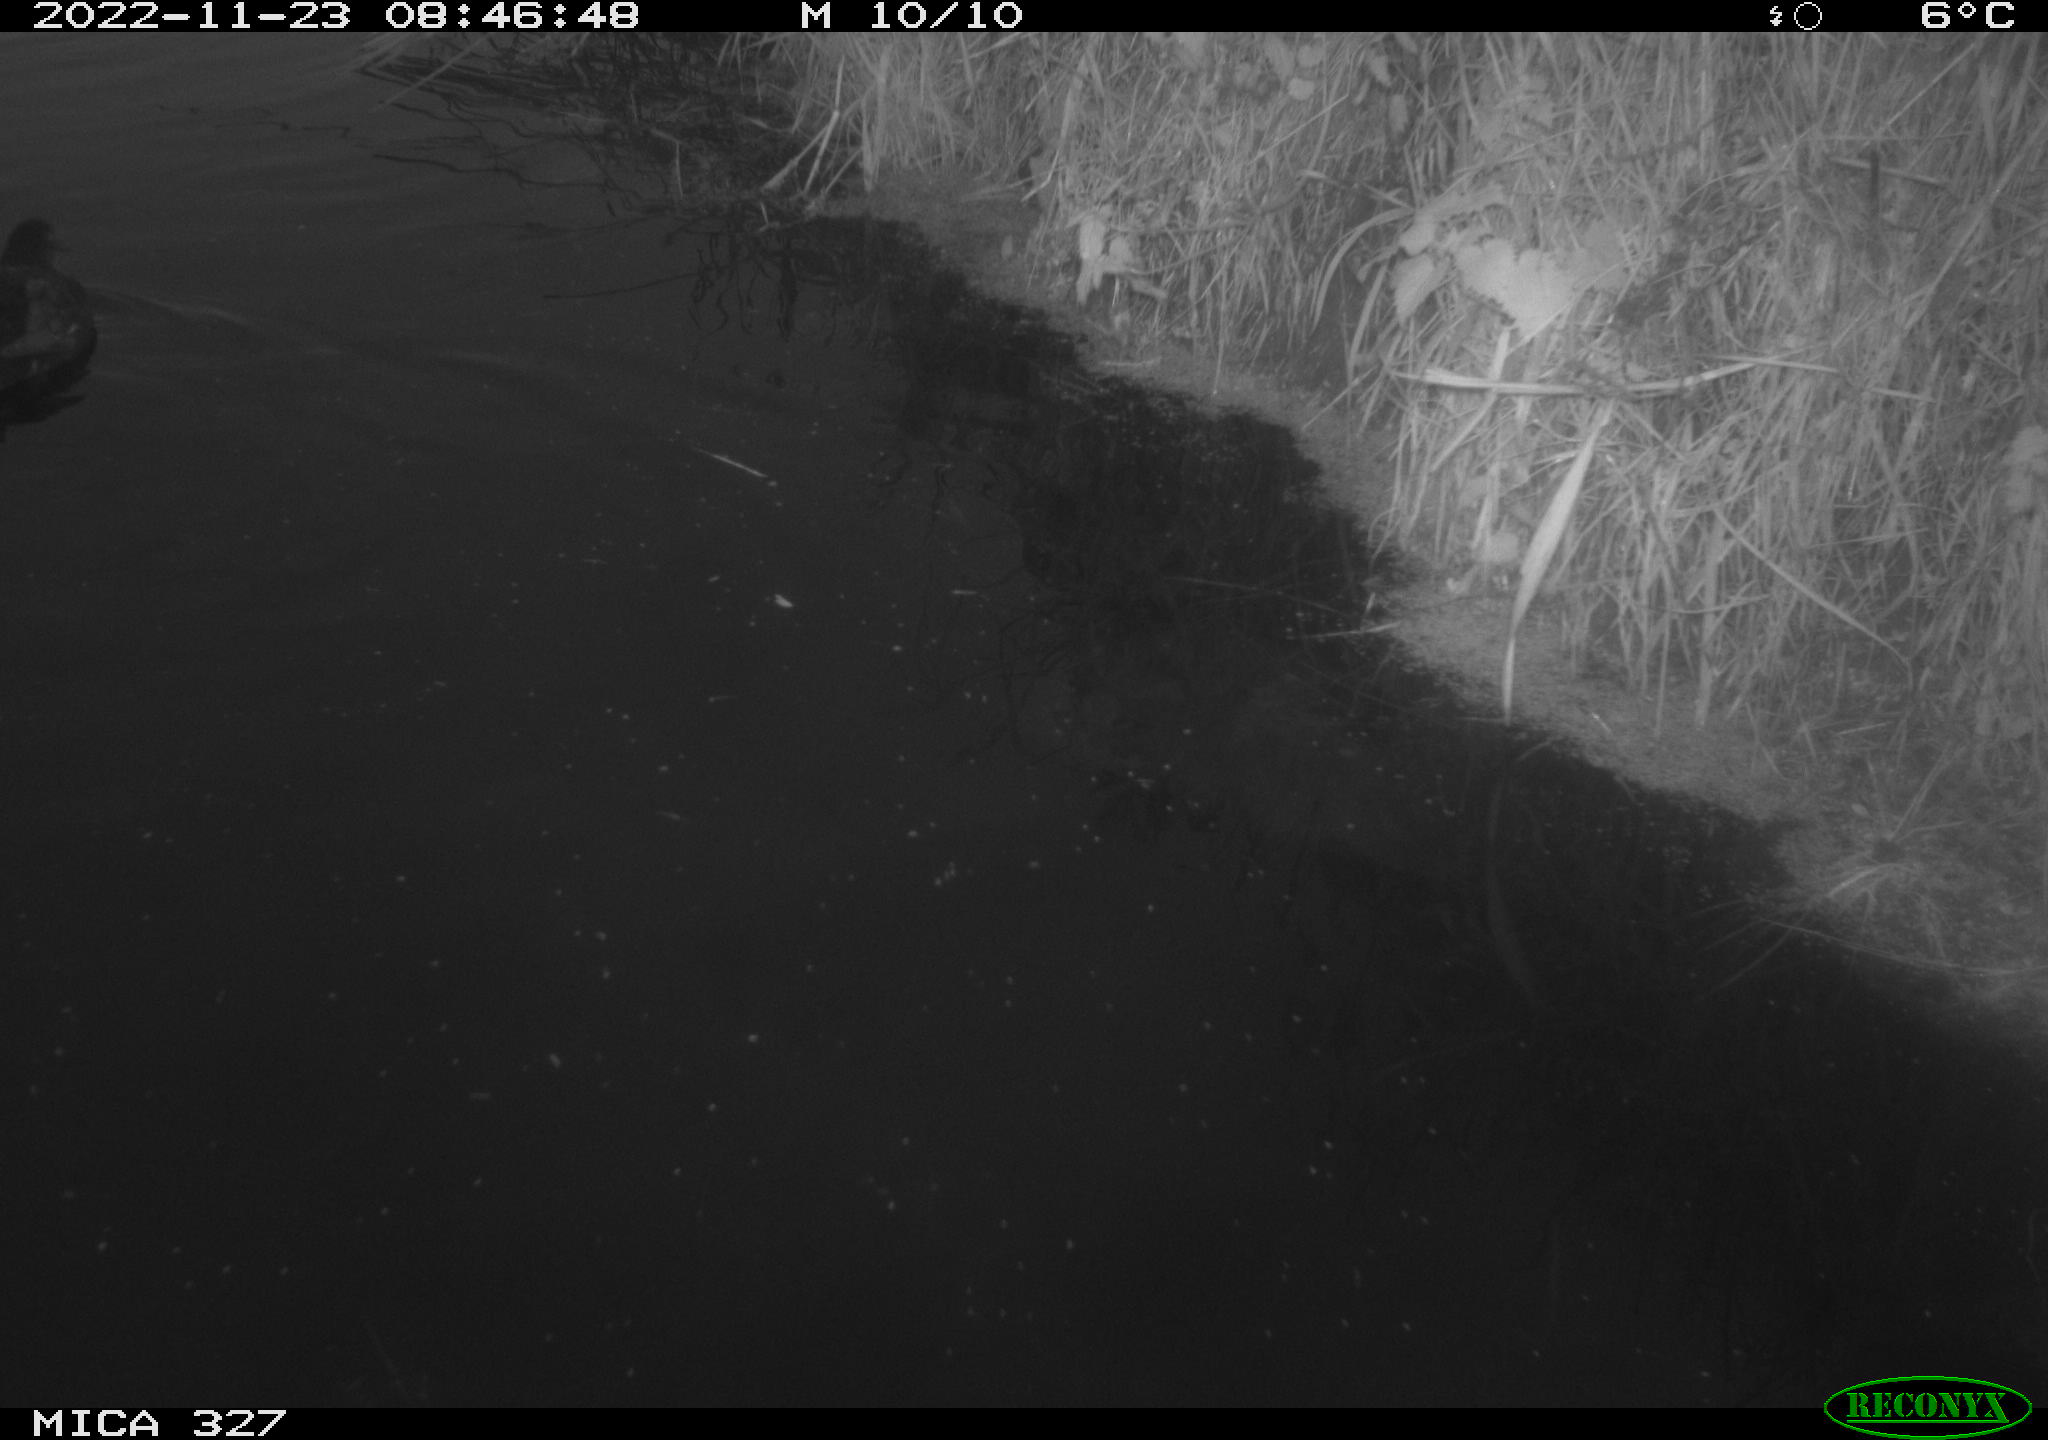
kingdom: Animalia
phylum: Chordata
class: Aves
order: Gruiformes
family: Rallidae
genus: Gallinula
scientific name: Gallinula chloropus
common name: Common moorhen
